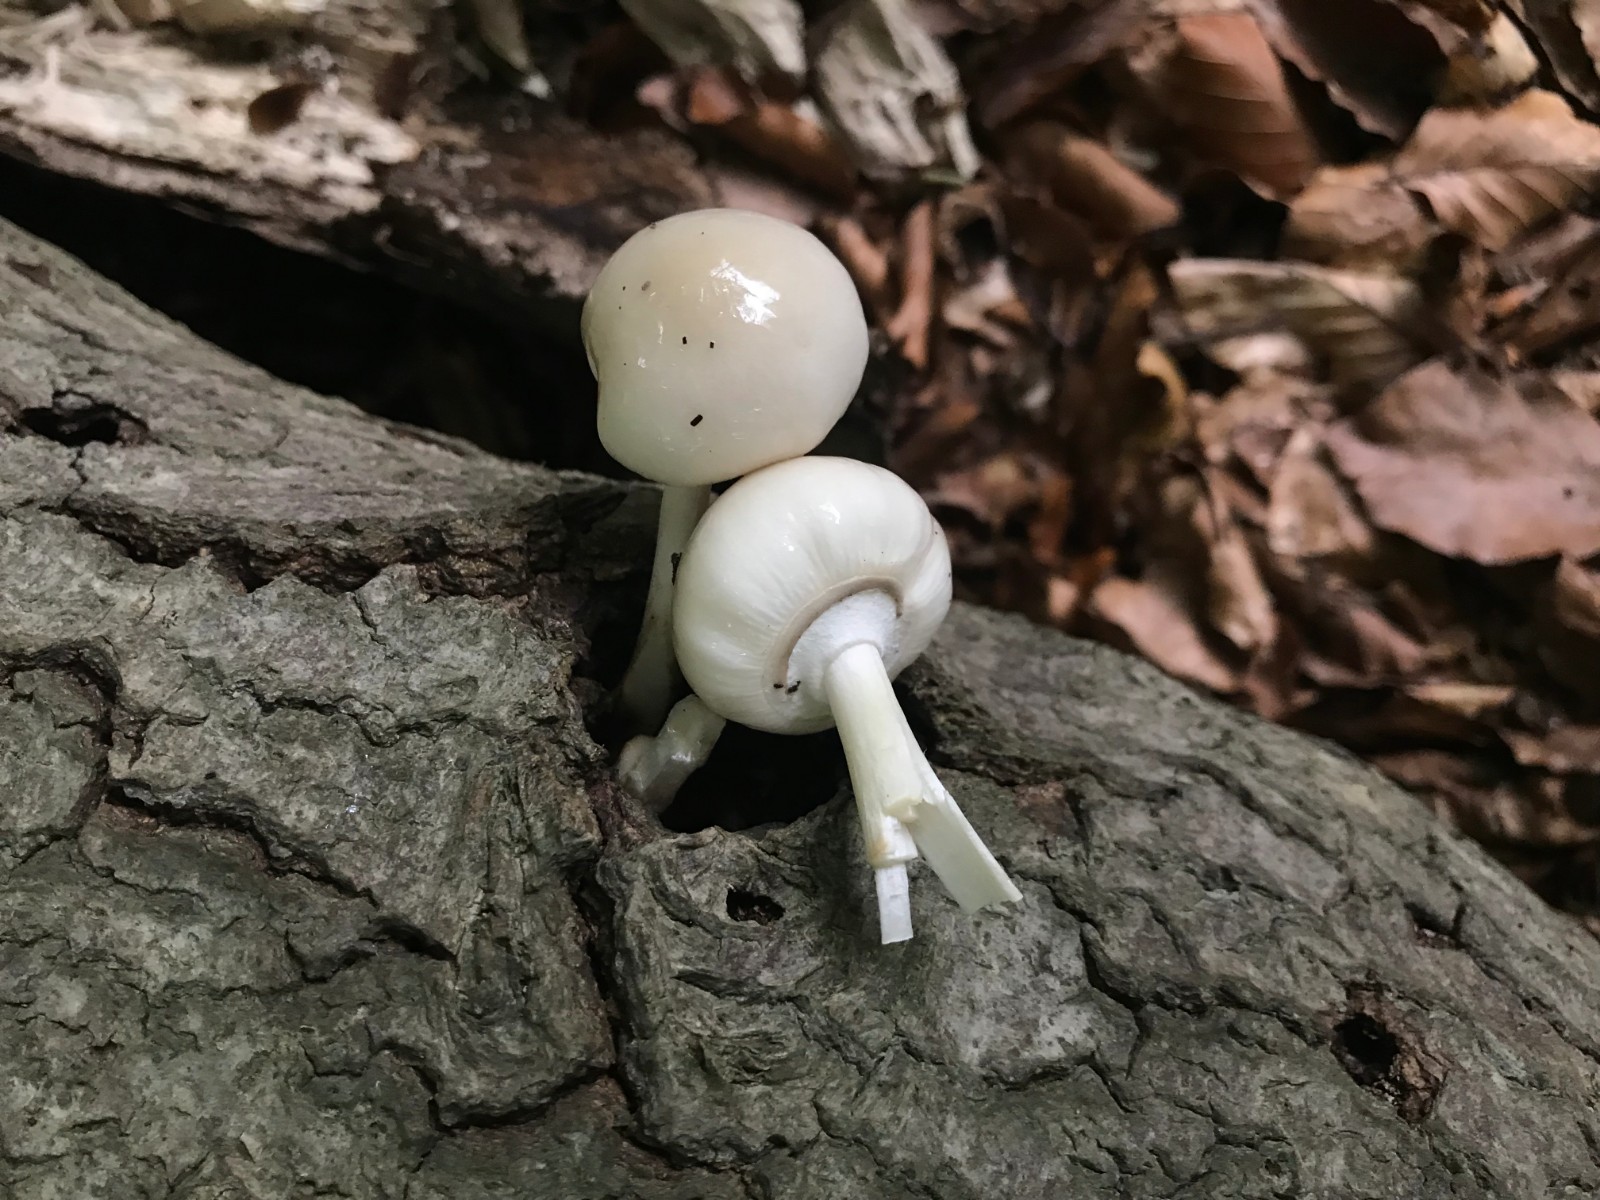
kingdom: Fungi
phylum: Basidiomycota
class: Agaricomycetes
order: Agaricales
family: Physalacriaceae
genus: Mucidula
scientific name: Mucidula mucida
